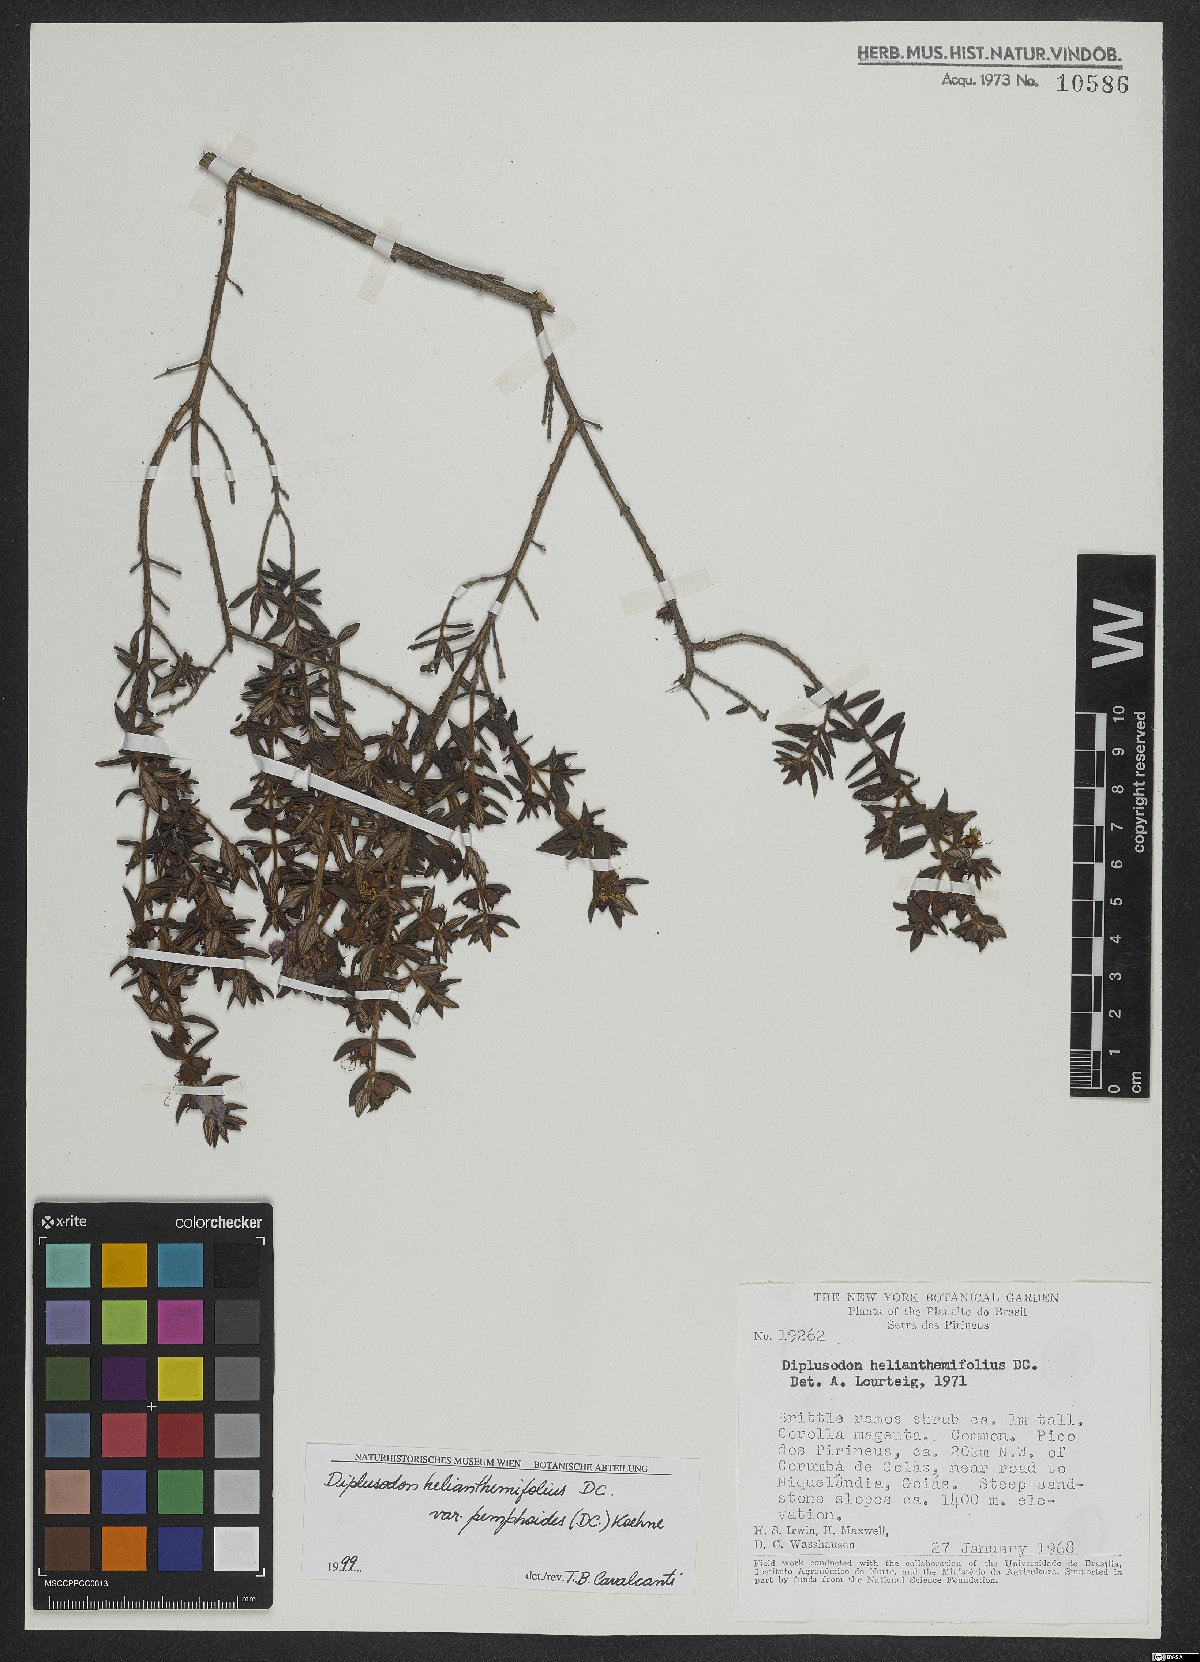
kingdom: Plantae
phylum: Tracheophyta
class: Magnoliopsida
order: Myrtales
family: Lythraceae
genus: Diplusodon
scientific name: Diplusodon helianthemifolius
